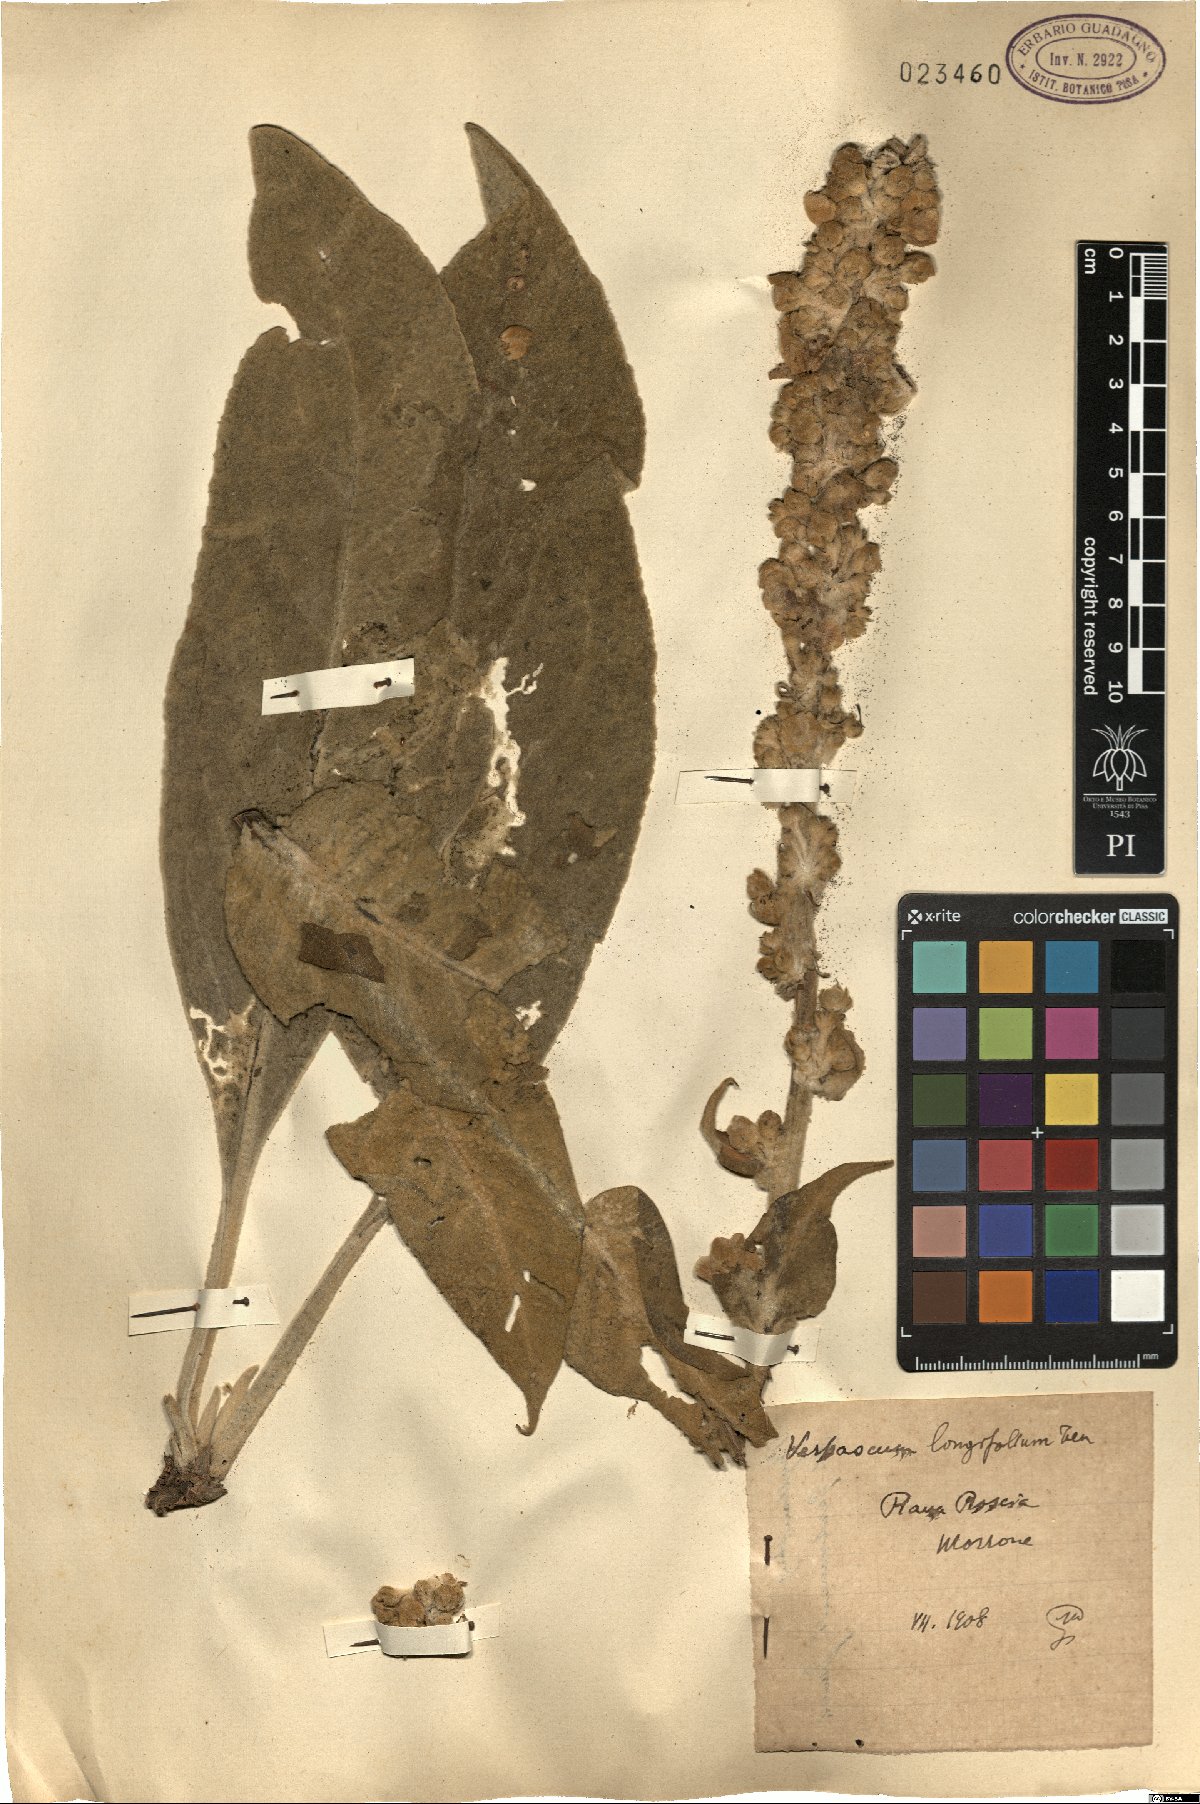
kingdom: Plantae
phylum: Tracheophyta
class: Magnoliopsida
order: Lamiales
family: Scrophulariaceae
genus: Verbascum
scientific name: Verbascum longifolium
